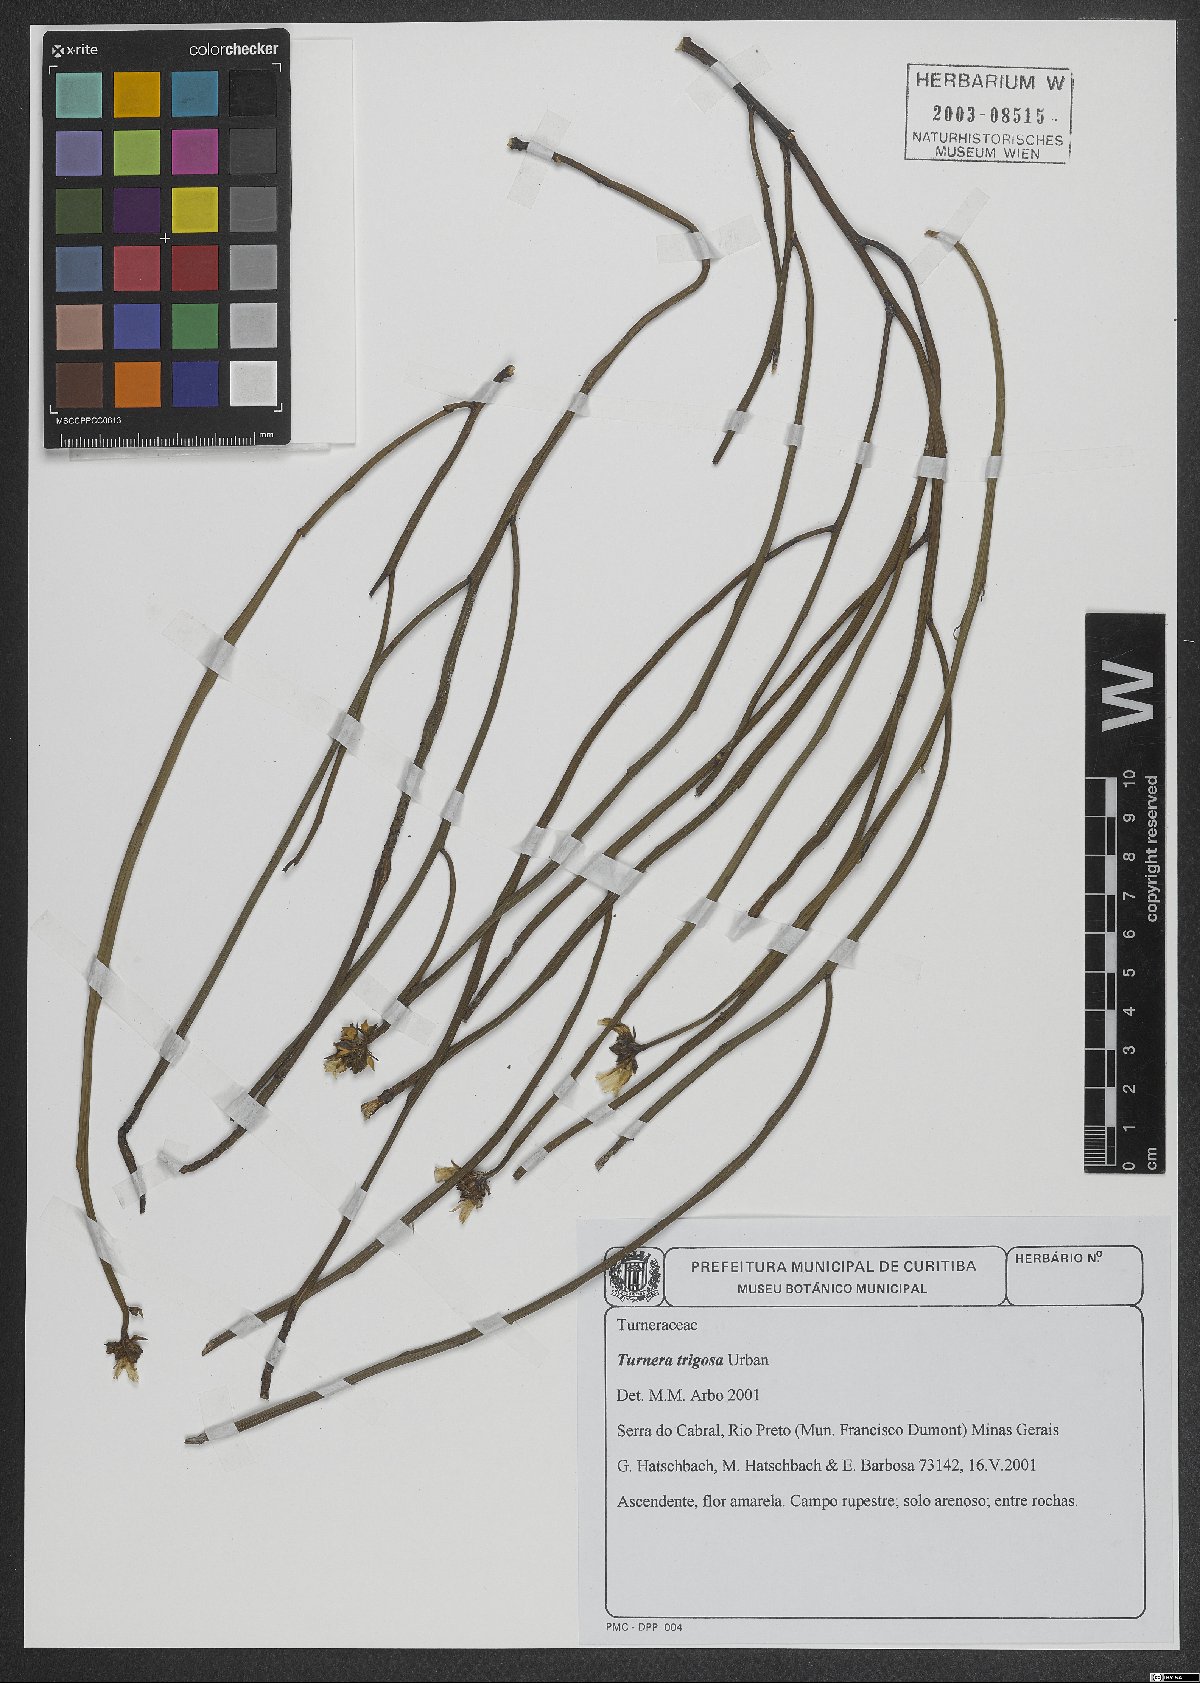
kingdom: Plantae
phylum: Tracheophyta
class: Magnoliopsida
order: Malpighiales
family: Turneraceae
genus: Turnera
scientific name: Turnera trigona
